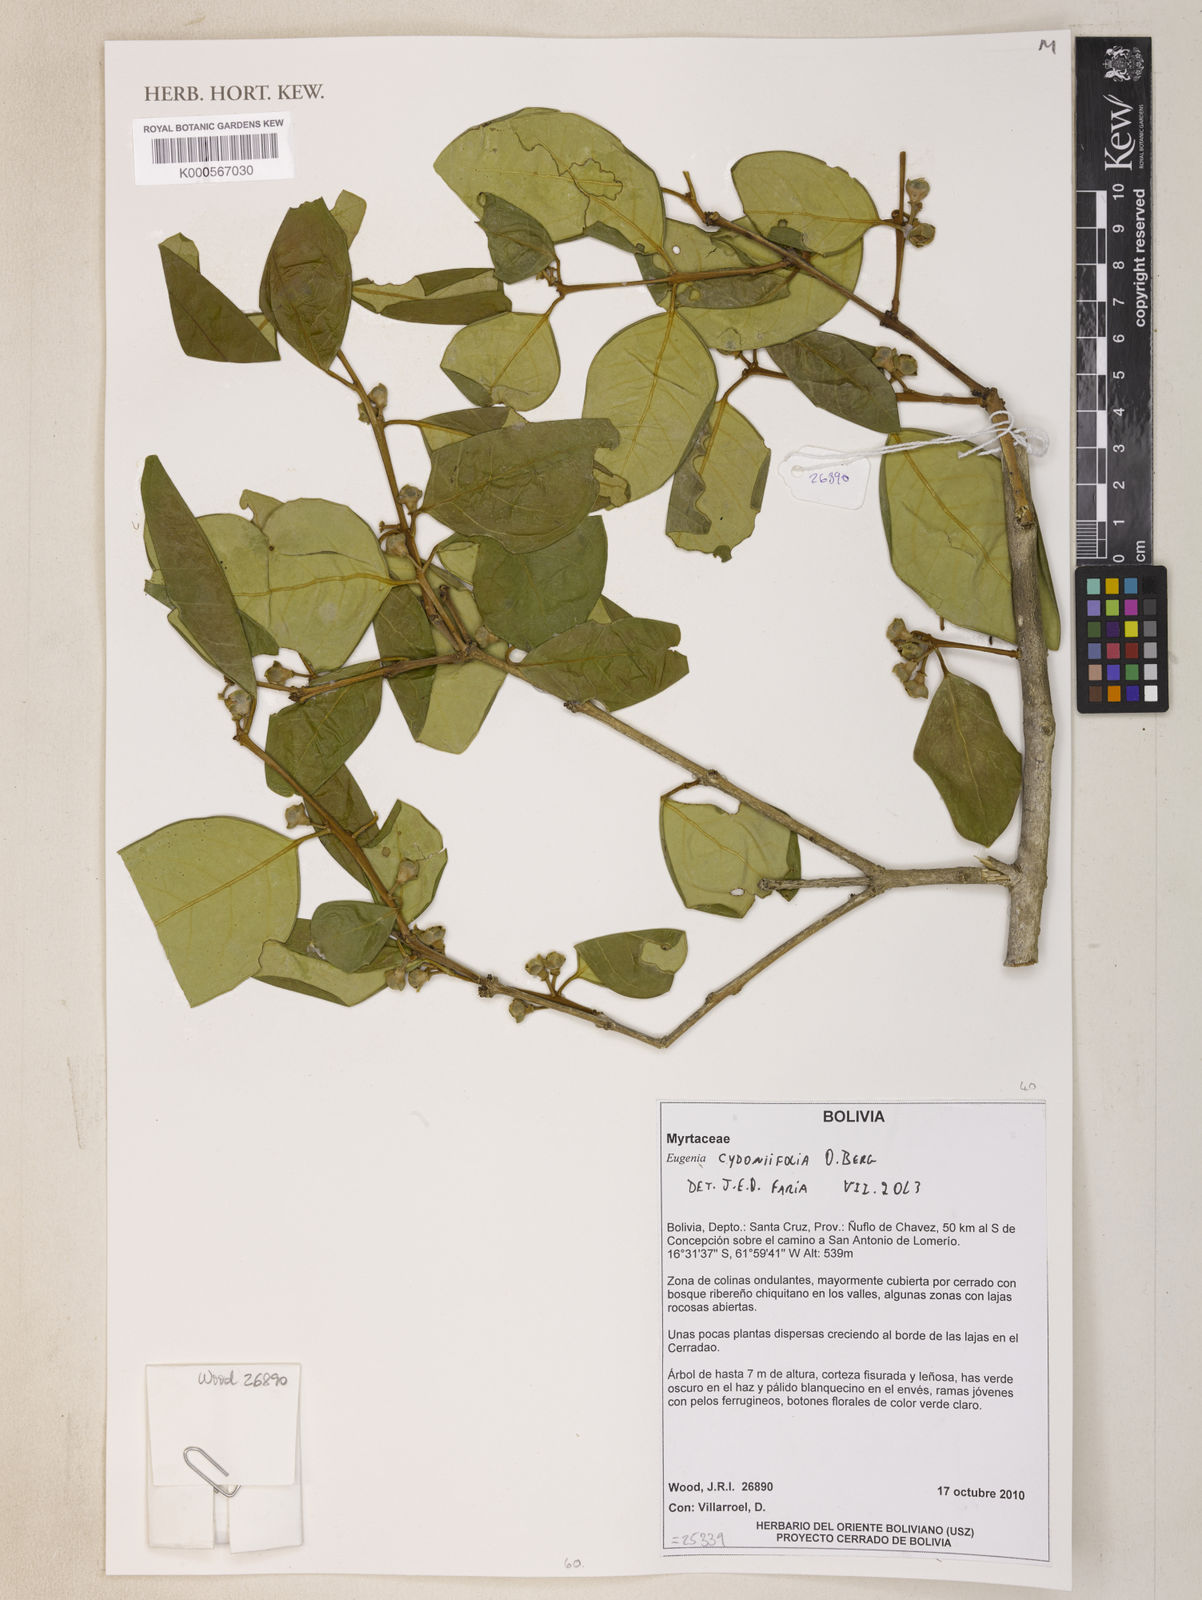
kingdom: Plantae
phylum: Tracheophyta
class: Magnoliopsida
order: Myrtales
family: Myrtaceae
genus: Eugenia
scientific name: Eugenia cydoniifolia
